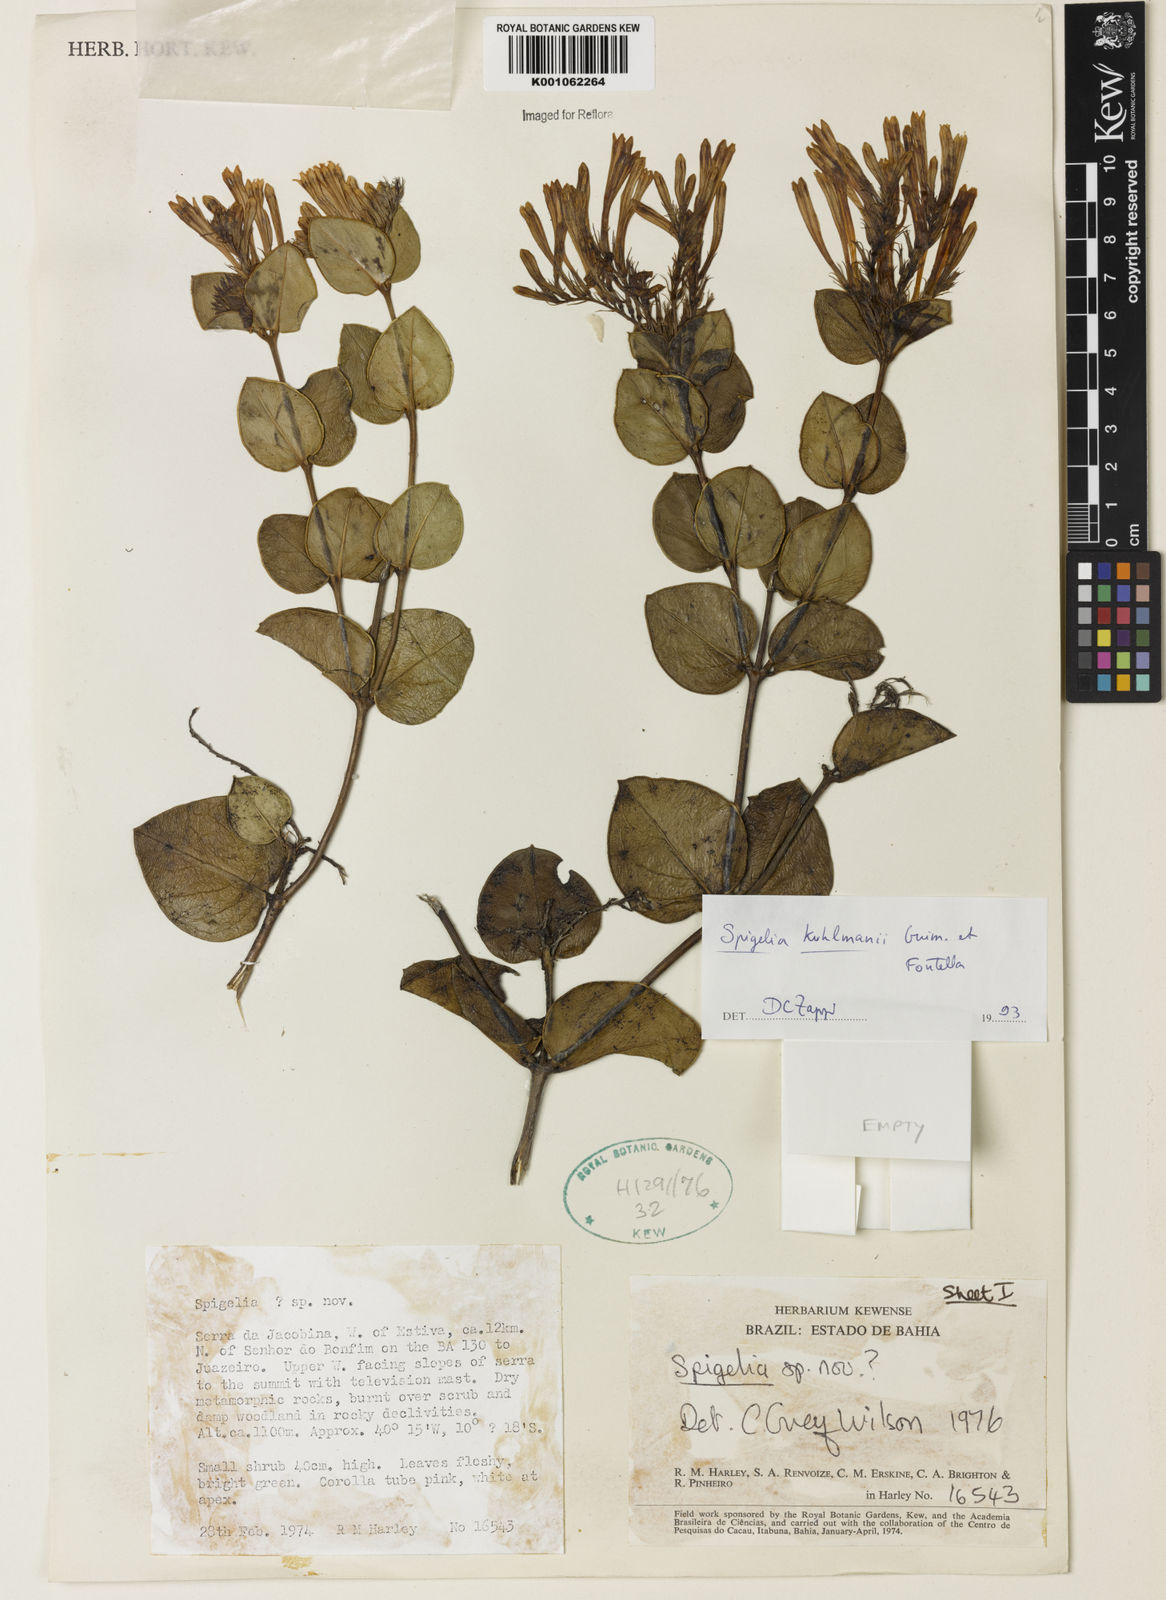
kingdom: Plantae
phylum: Tracheophyta
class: Magnoliopsida
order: Gentianales
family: Loganiaceae
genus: Spigelia
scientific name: Spigelia kuhlmannii
